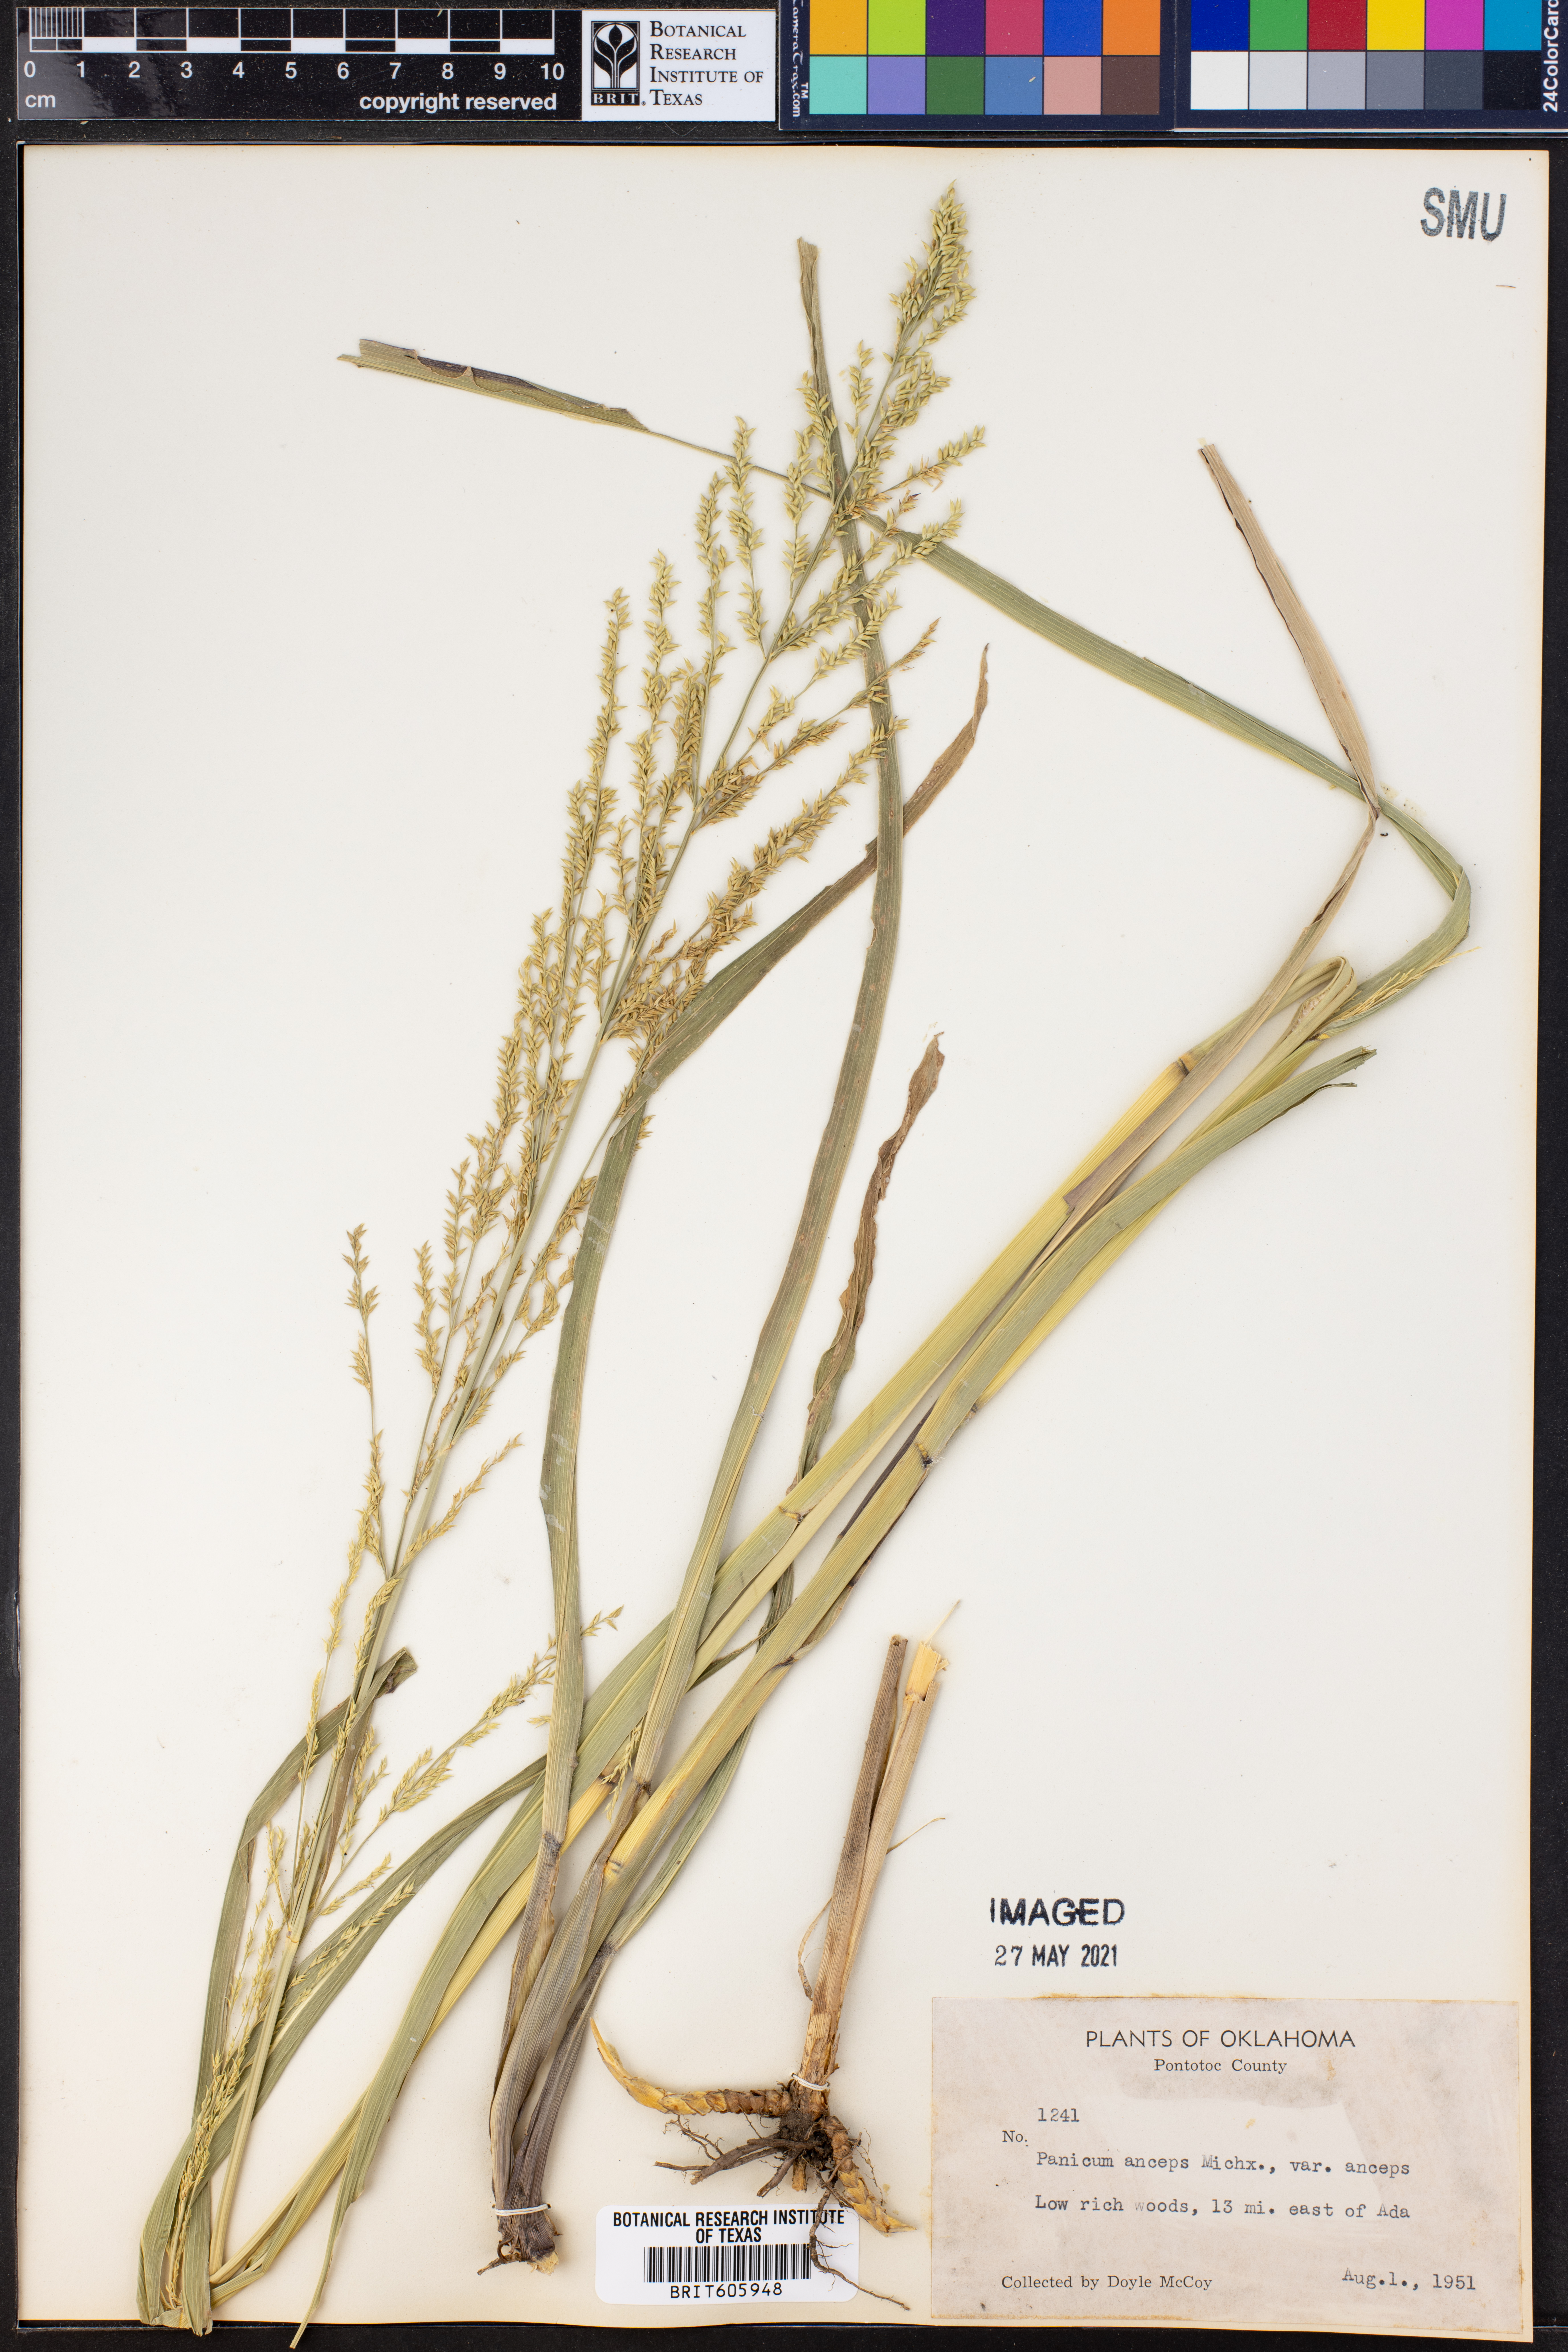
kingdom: Plantae
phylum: Tracheophyta
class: Liliopsida
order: Poales
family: Poaceae
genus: Coleataenia
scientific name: Coleataenia anceps
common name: Beaked panic grass
